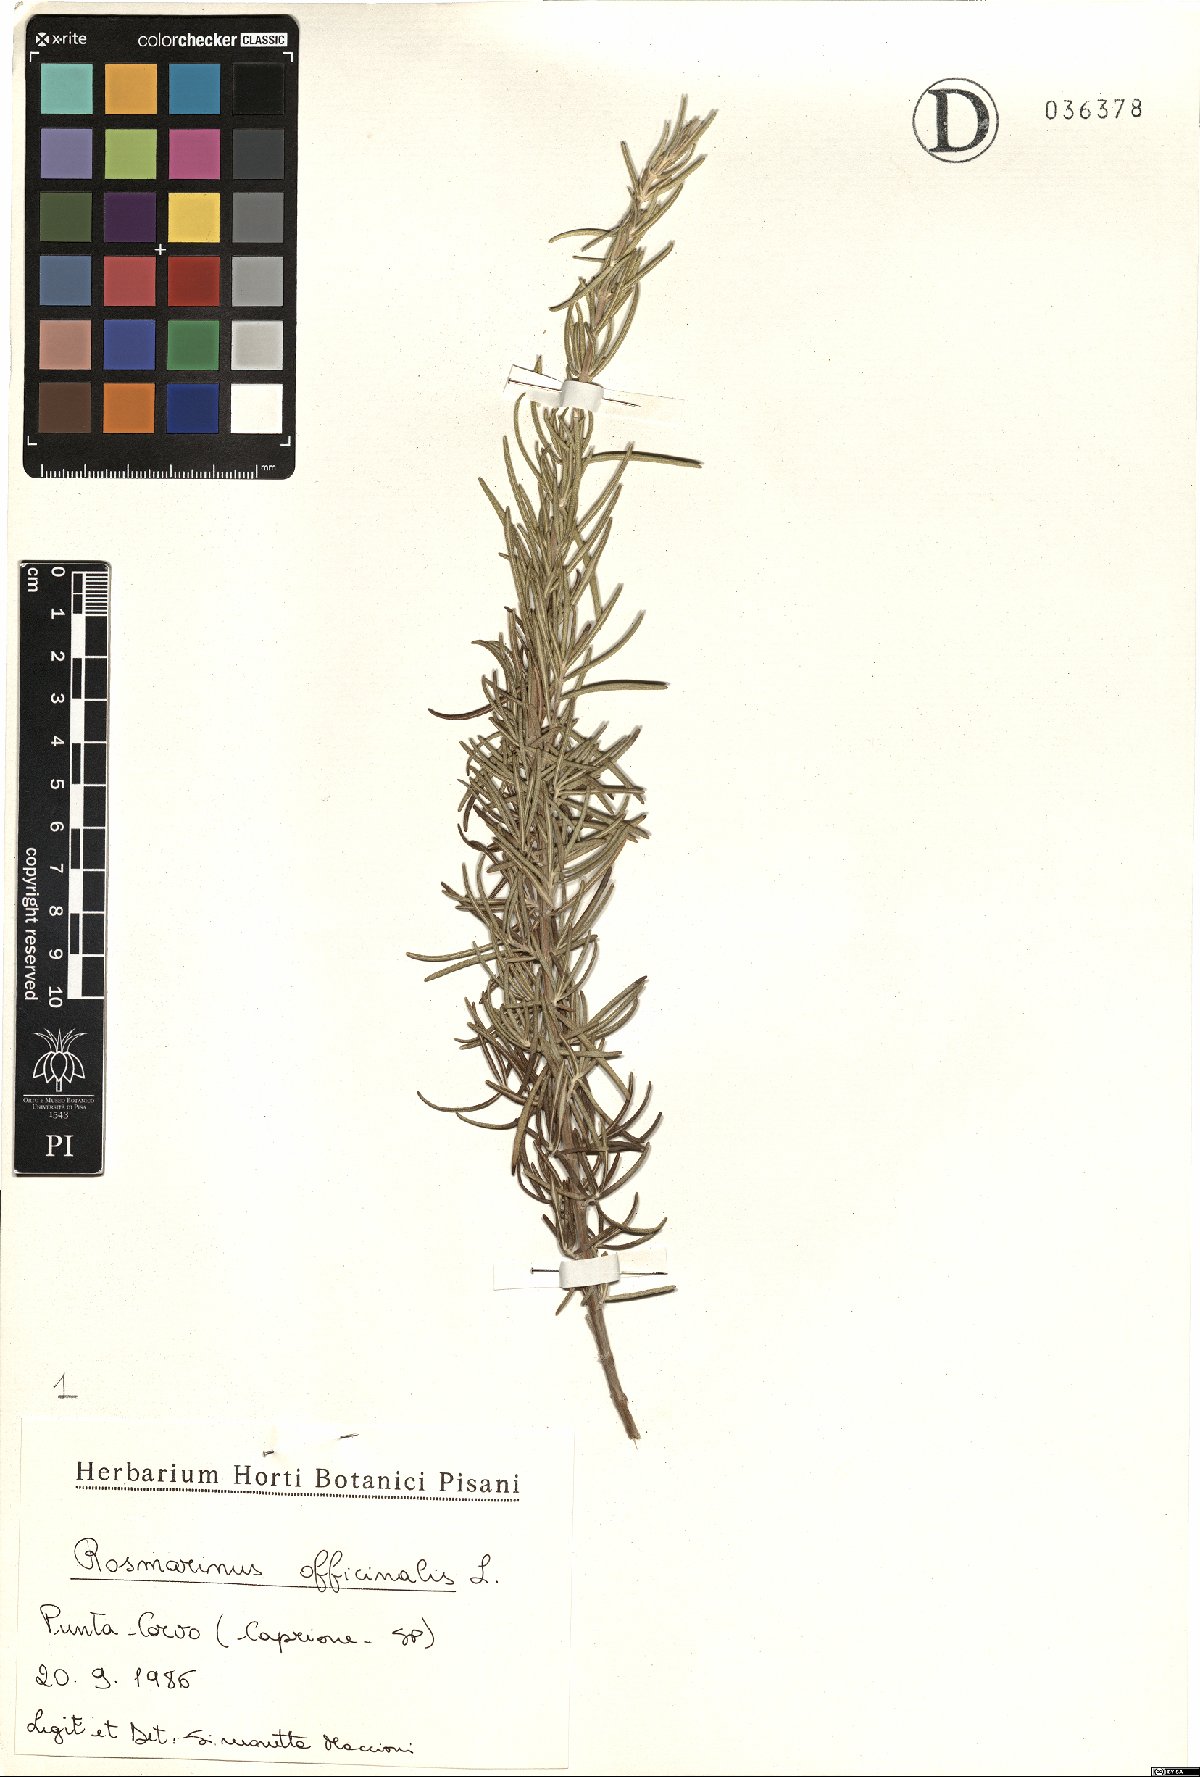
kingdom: Plantae
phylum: Tracheophyta
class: Magnoliopsida
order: Lamiales
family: Lamiaceae
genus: Salvia
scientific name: Salvia rosmarinus
